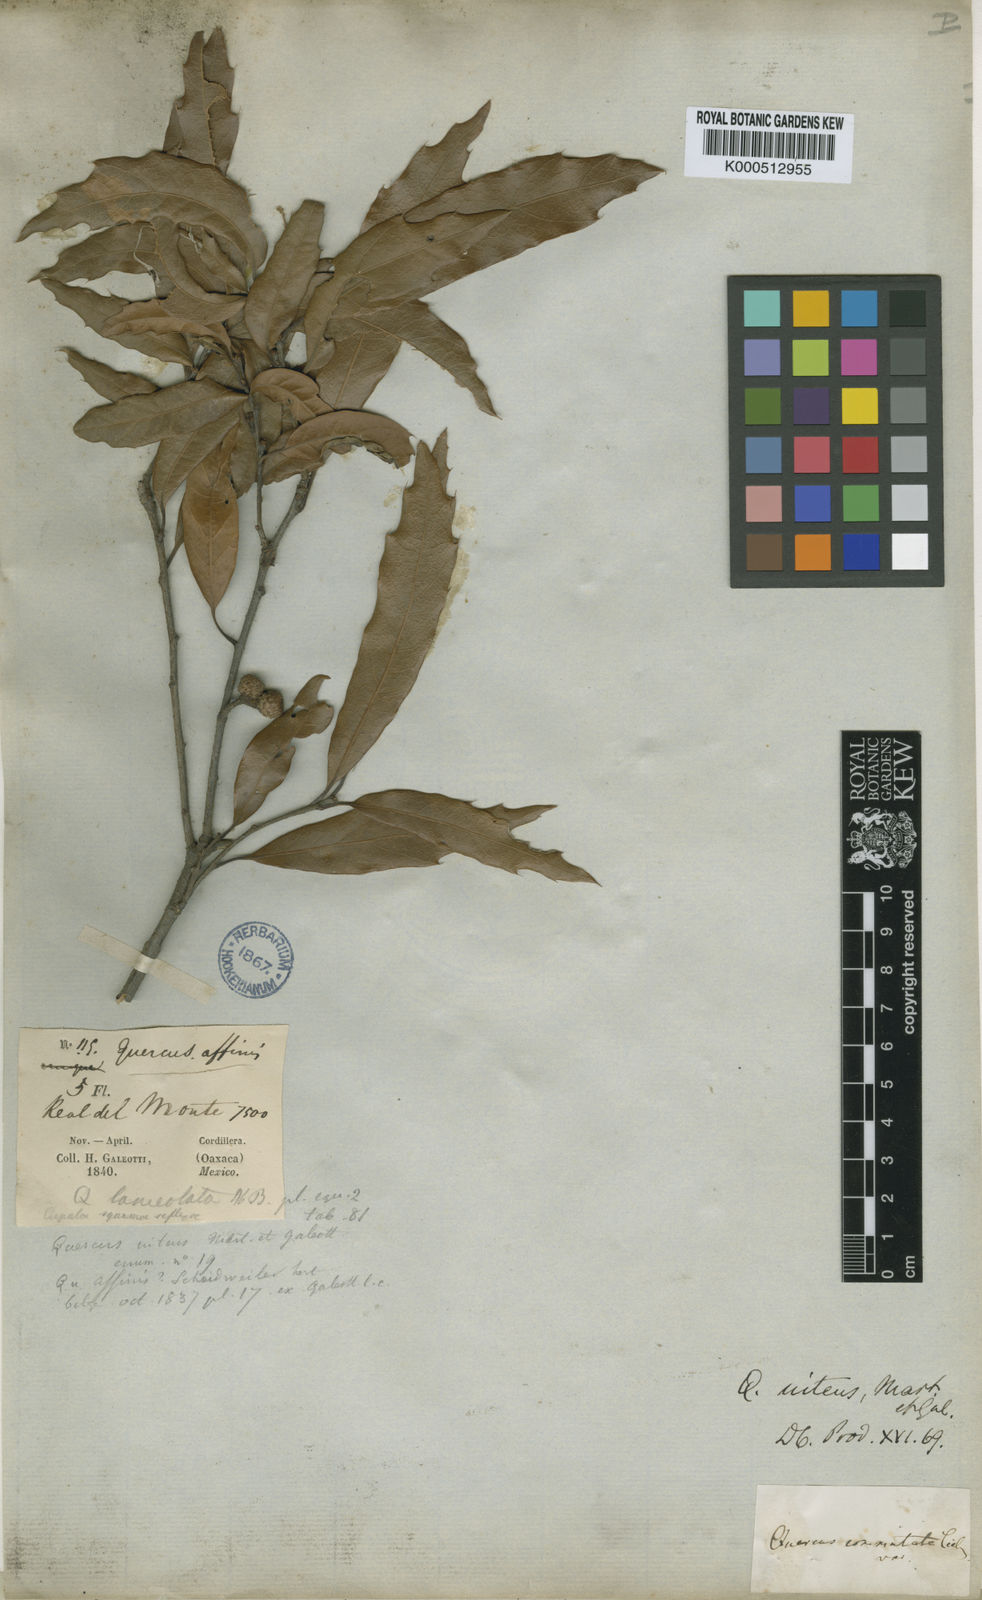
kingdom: Plantae
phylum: Tracheophyta
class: Magnoliopsida
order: Fagales
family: Fagaceae
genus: Quercus
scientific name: Quercus affinis
